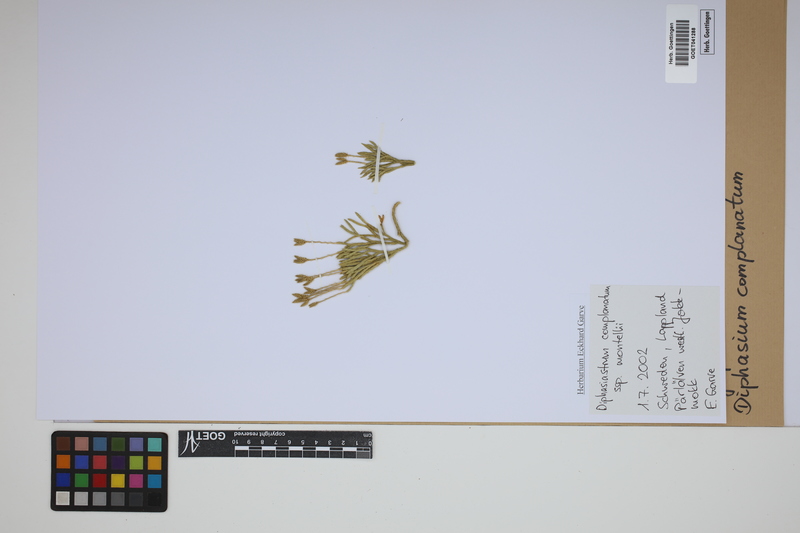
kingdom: Plantae
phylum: Tracheophyta
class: Lycopodiopsida
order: Lycopodiales
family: Lycopodiaceae
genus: Diphasiastrum
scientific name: Diphasiastrum complanatum
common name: Northern running-pine
